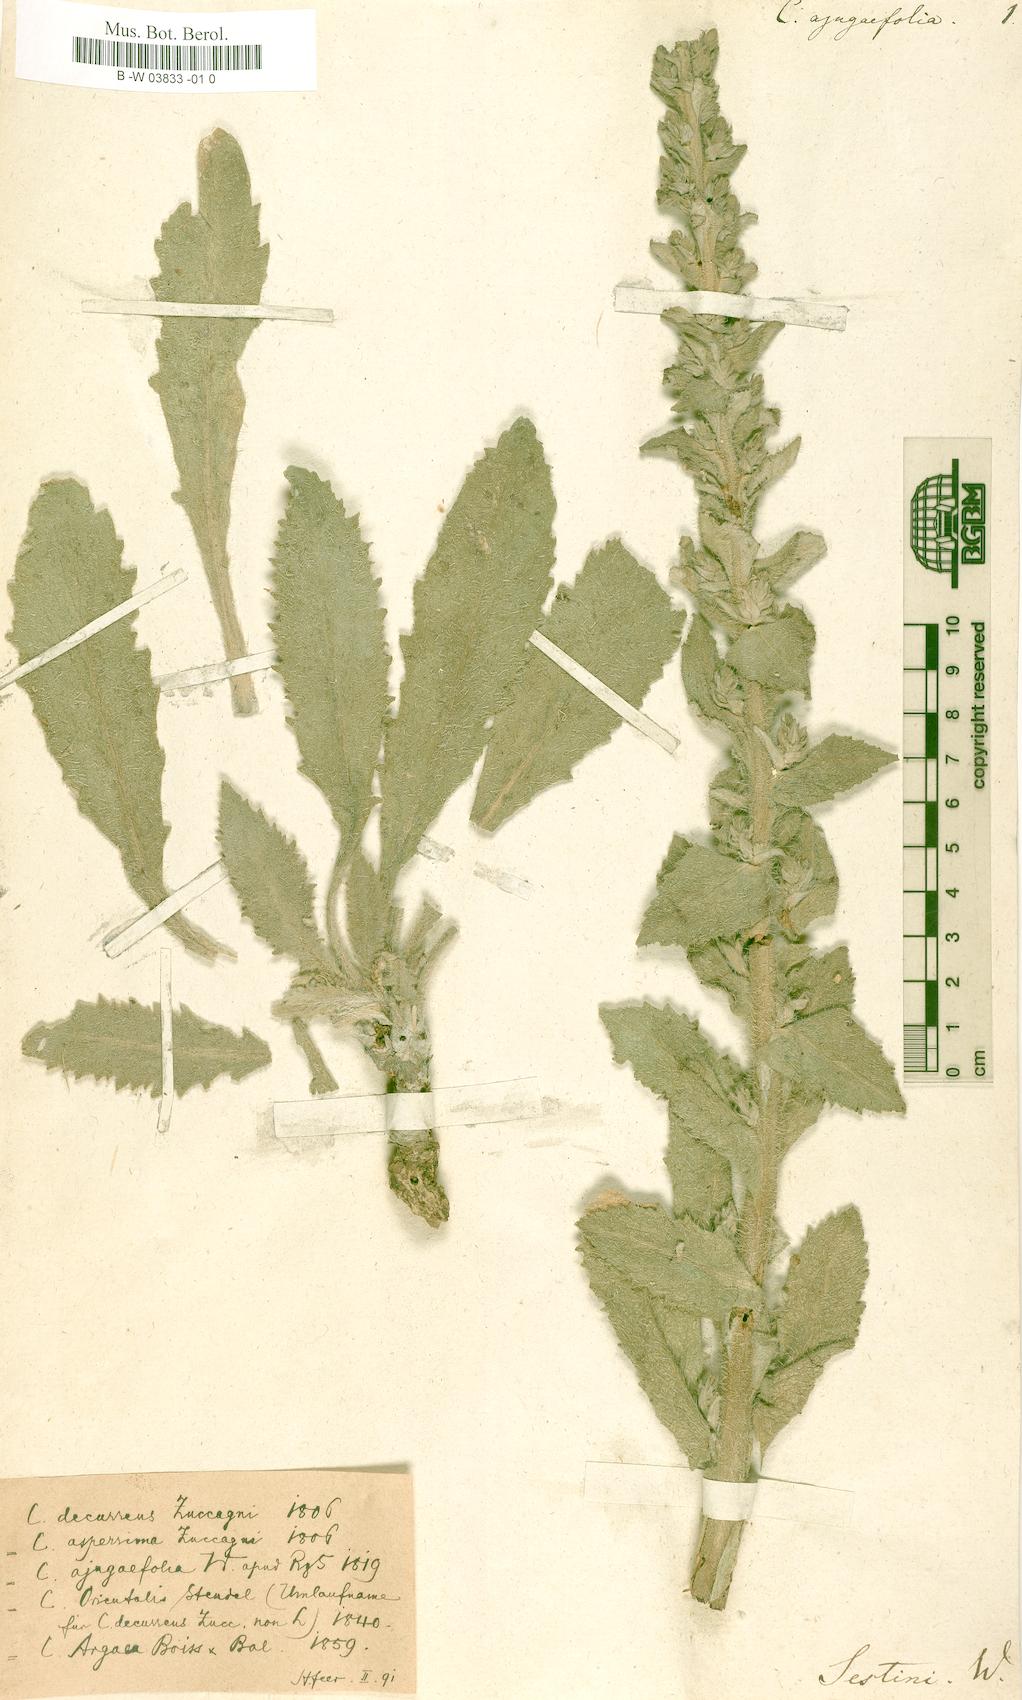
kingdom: Plantae
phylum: Tracheophyta
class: Magnoliopsida
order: Asterales
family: Campanulaceae
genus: Campanula
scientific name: Campanula ajugifolia
